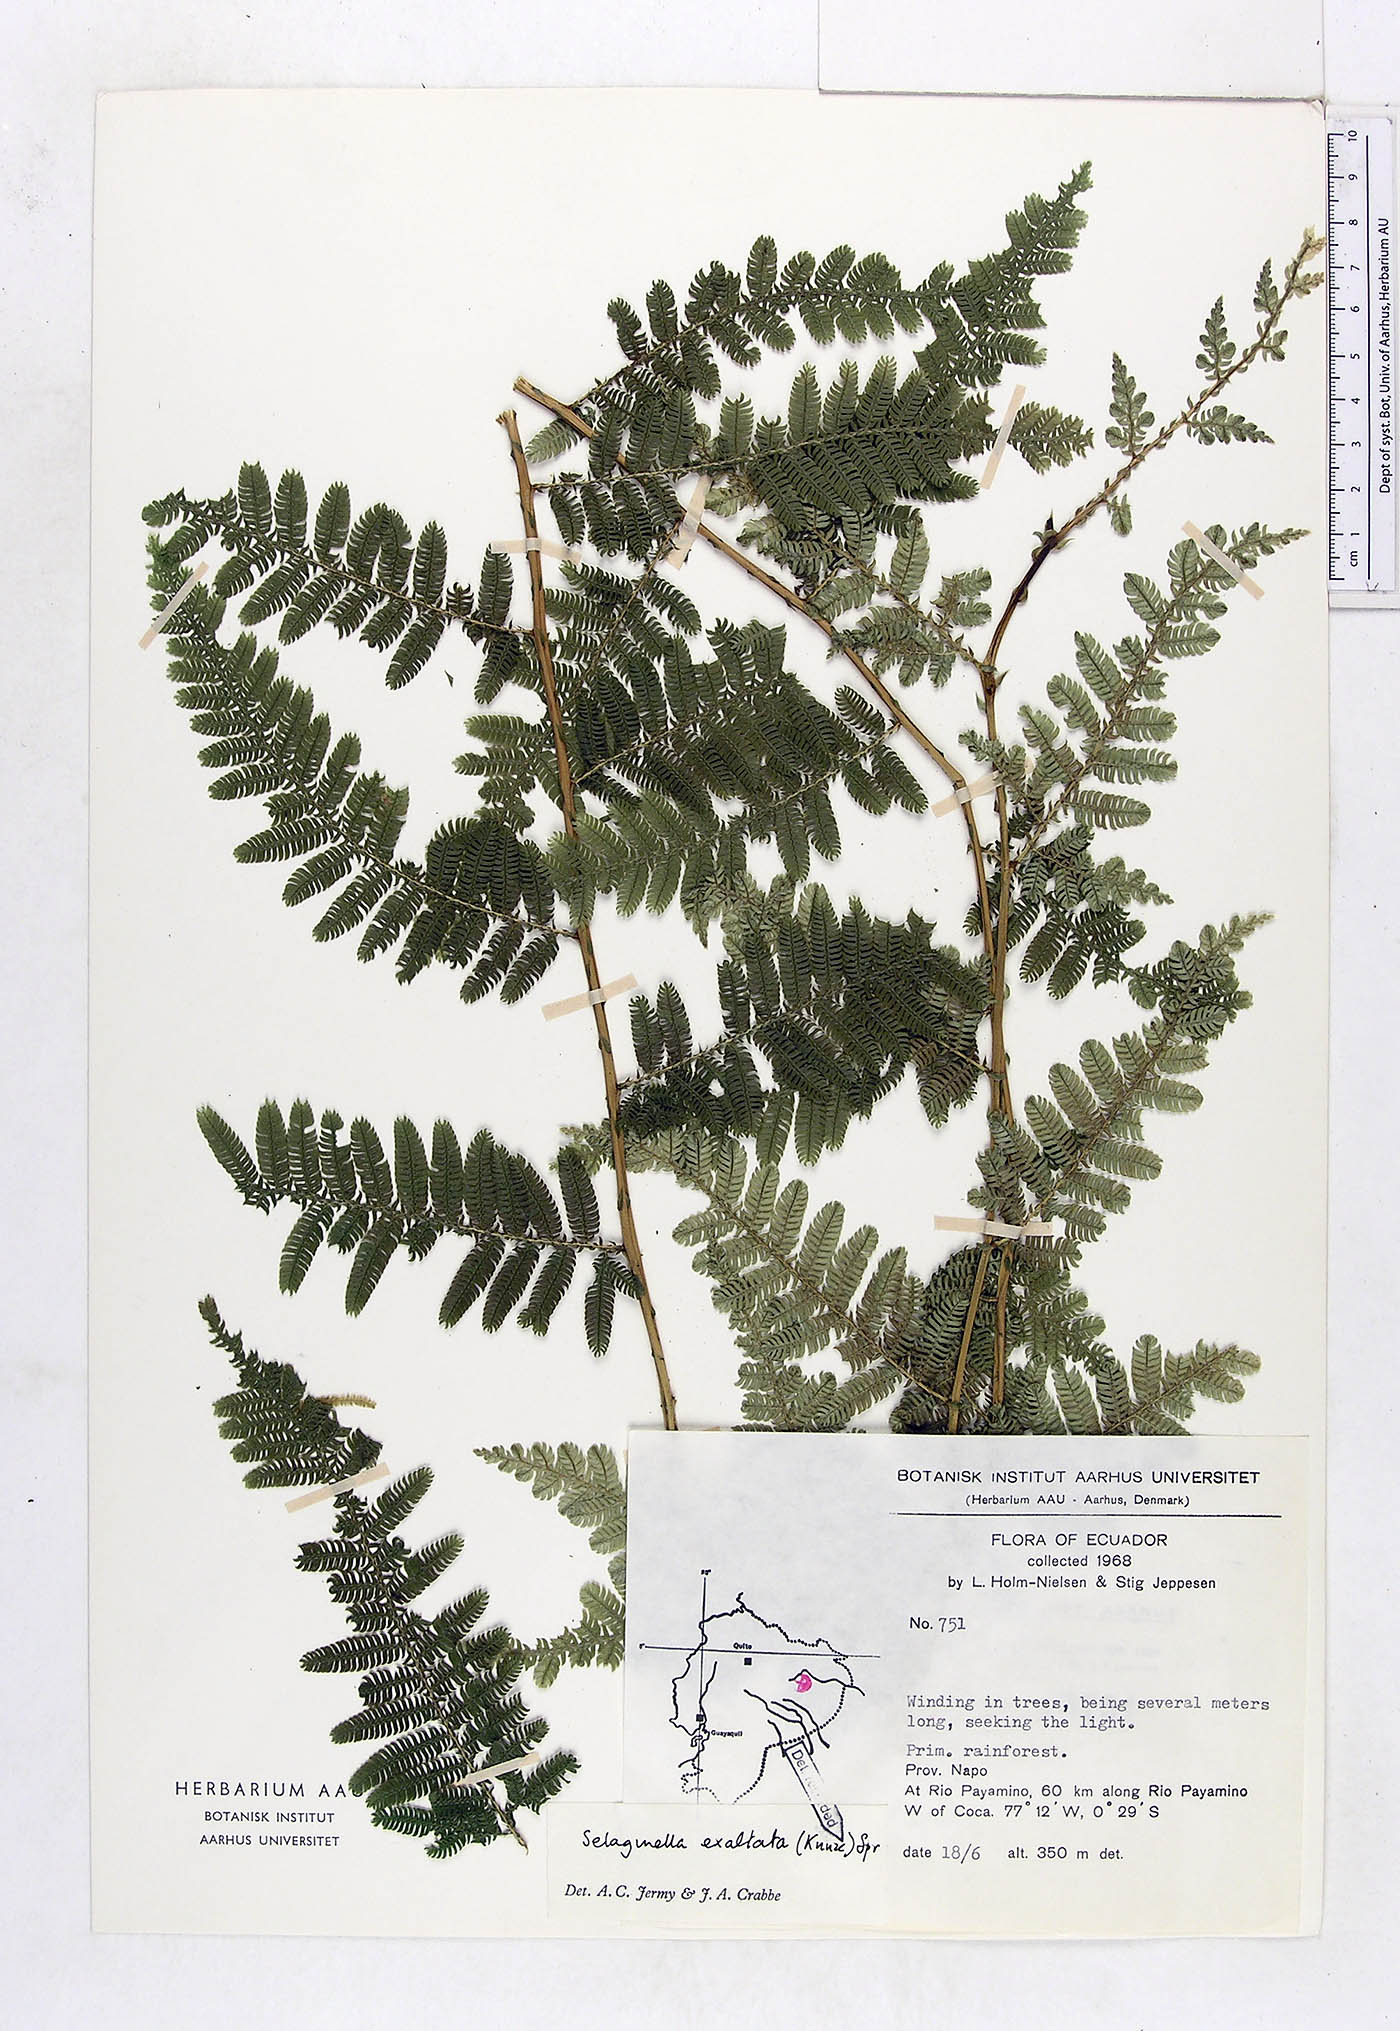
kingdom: Plantae
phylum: Tracheophyta
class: Lycopodiopsida
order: Selaginellales
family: Selaginellaceae
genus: Selaginella
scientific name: Selaginella exaltata
